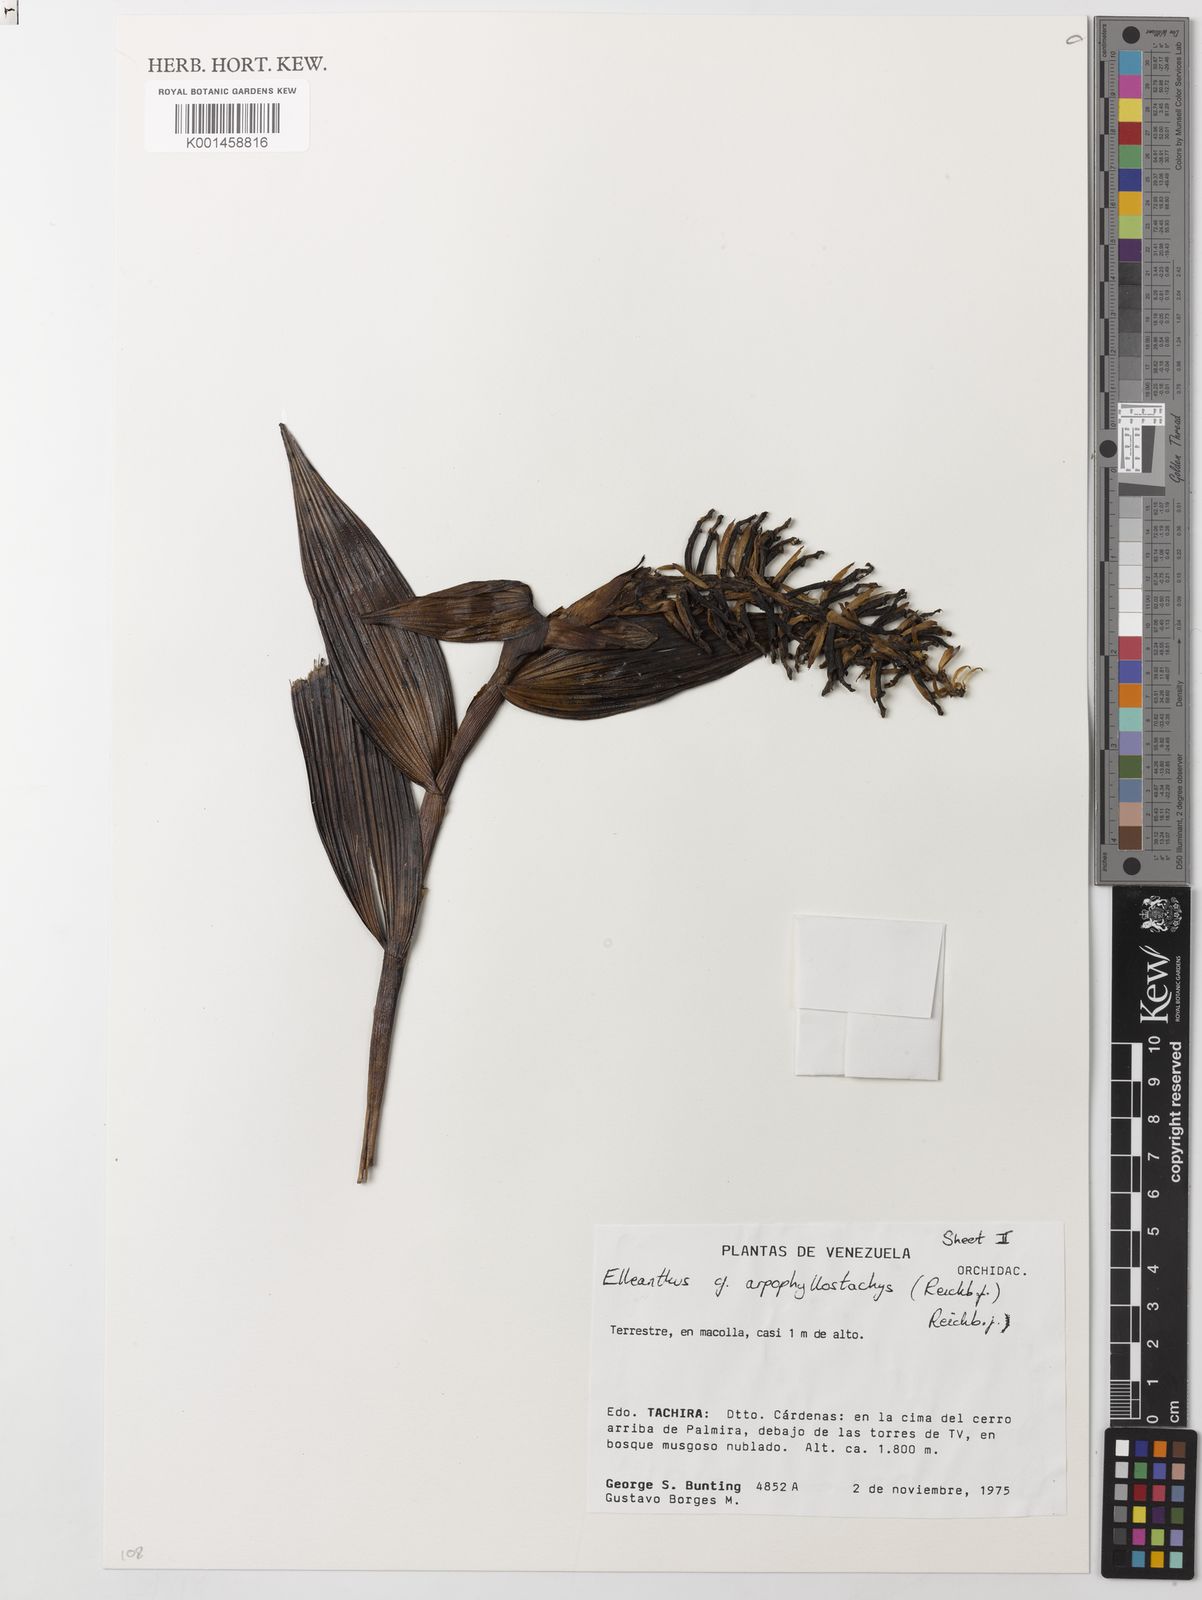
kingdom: Plantae
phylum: Tracheophyta
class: Liliopsida
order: Asparagales
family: Orchidaceae
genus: Elleanthus
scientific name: Elleanthus arpophyllostachys
